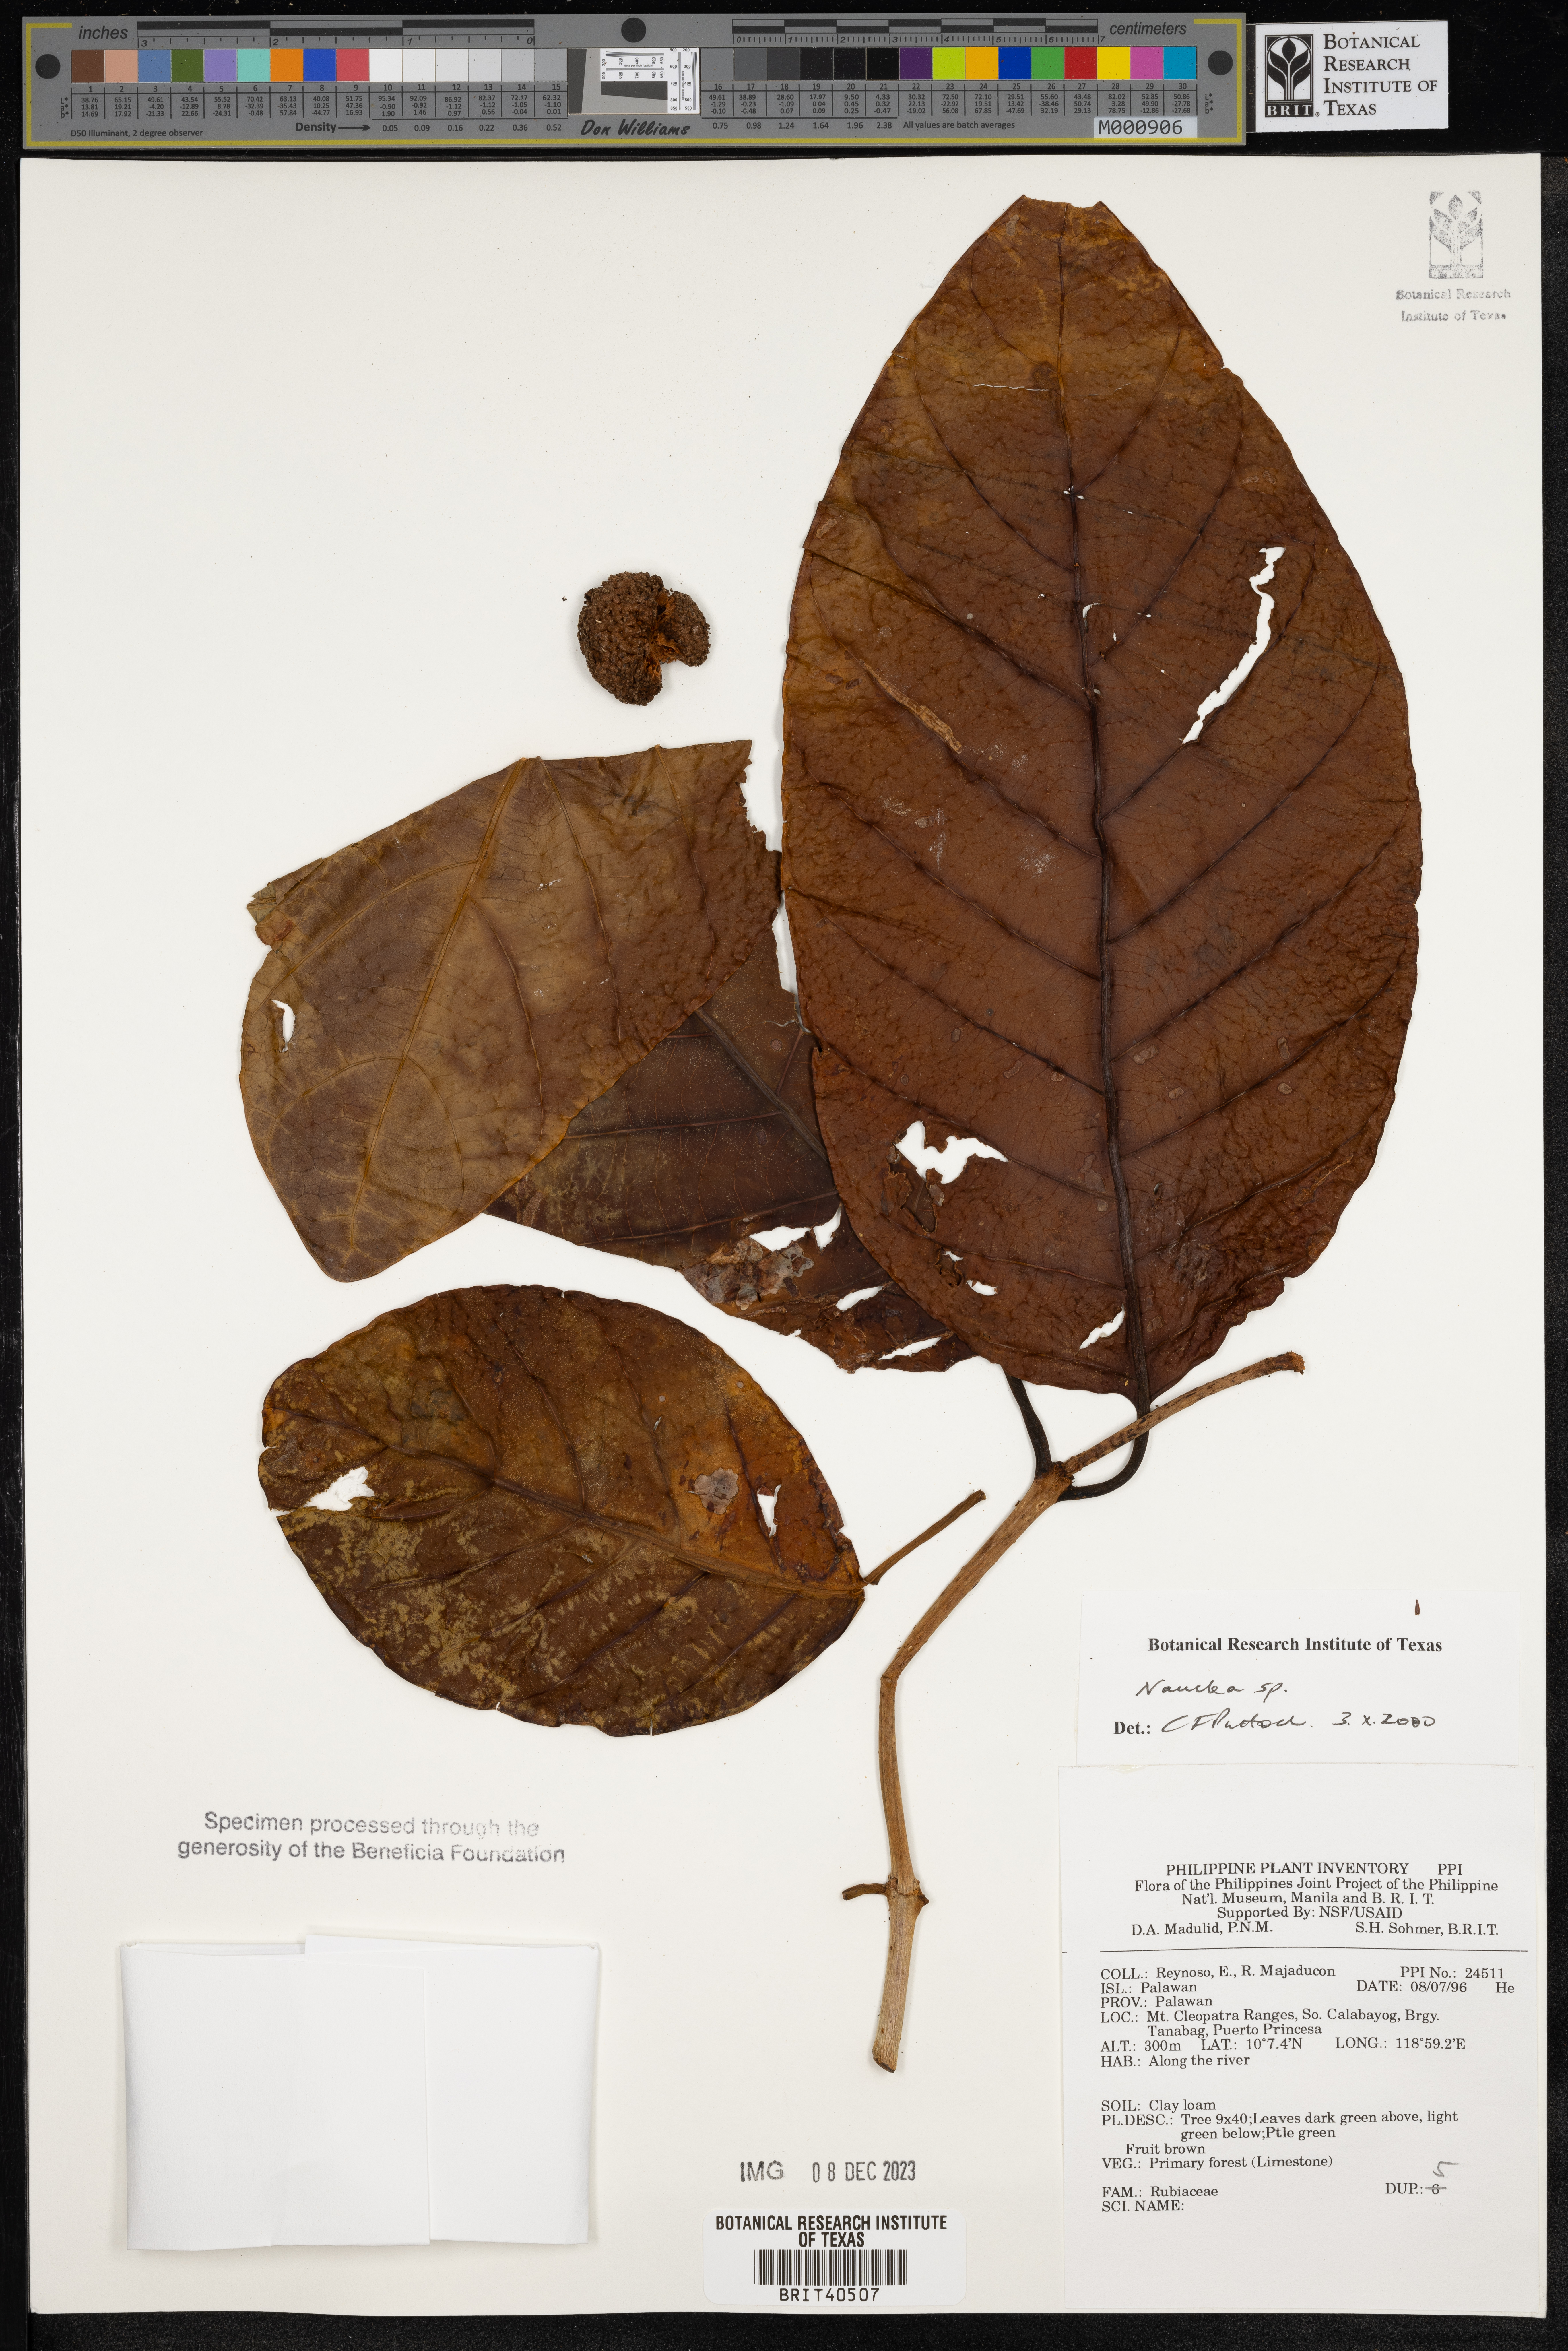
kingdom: Plantae
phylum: Tracheophyta
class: Magnoliopsida
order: Gentianales
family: Rubiaceae
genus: Nauclea
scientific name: Nauclea
